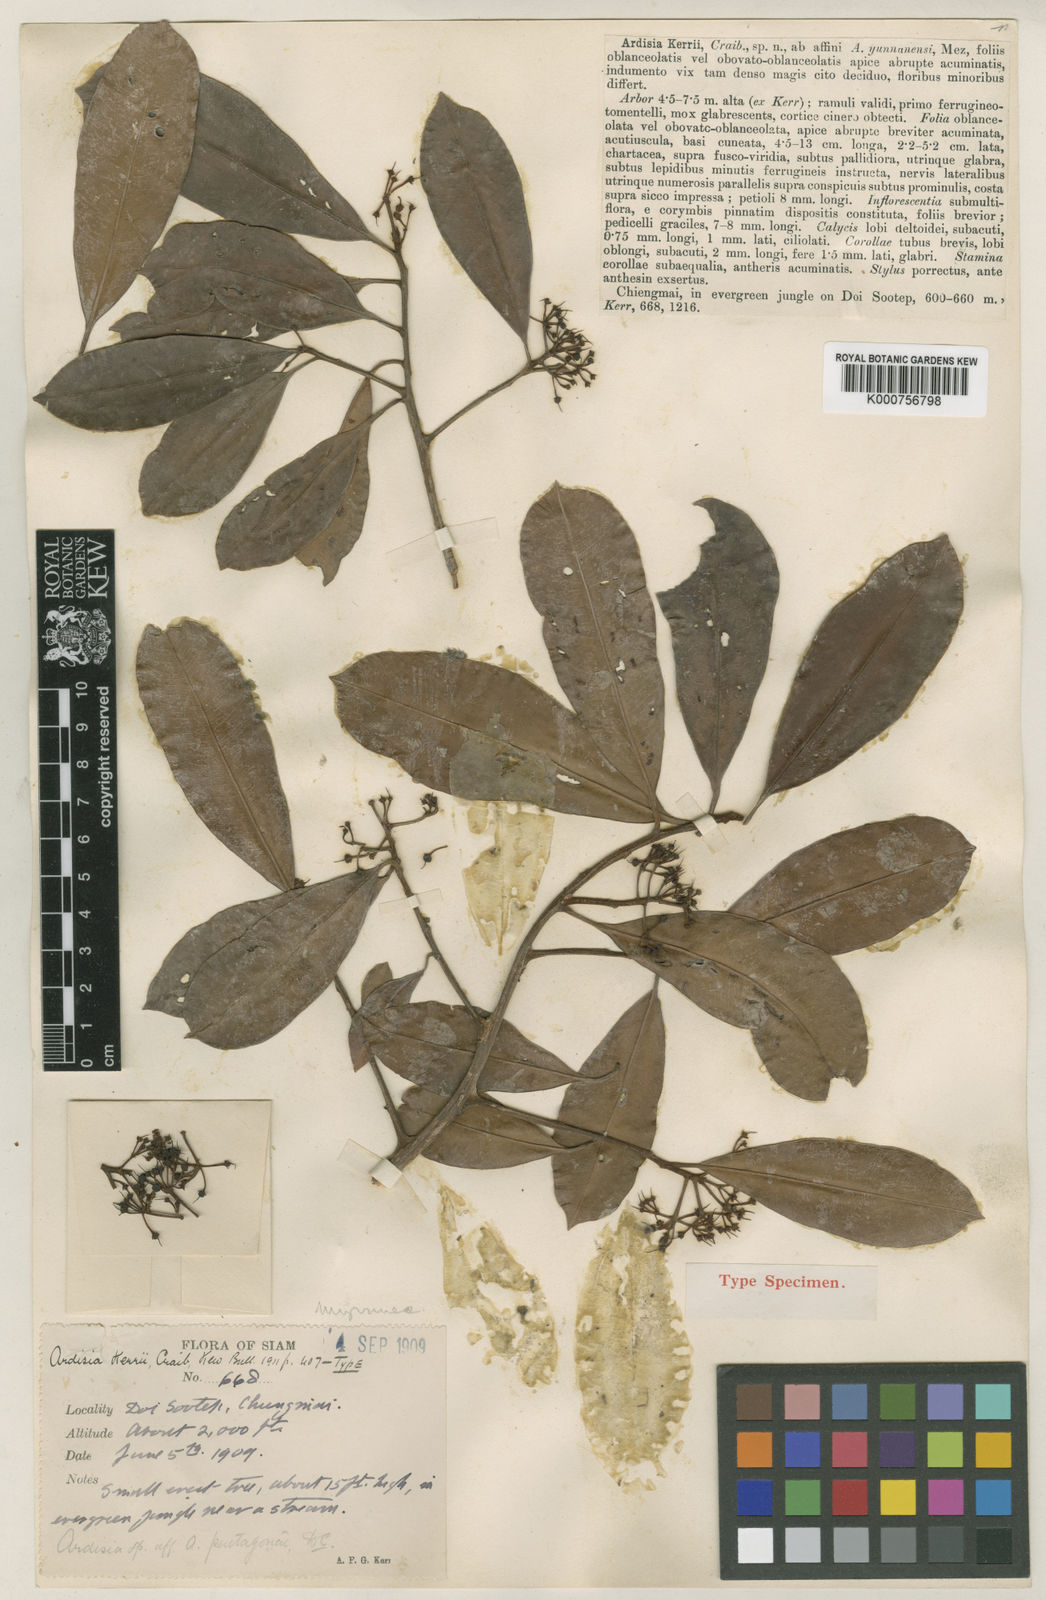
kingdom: Plantae
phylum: Tracheophyta
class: Magnoliopsida
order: Ericales
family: Primulaceae
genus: Ardisia
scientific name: Ardisia kerrii
